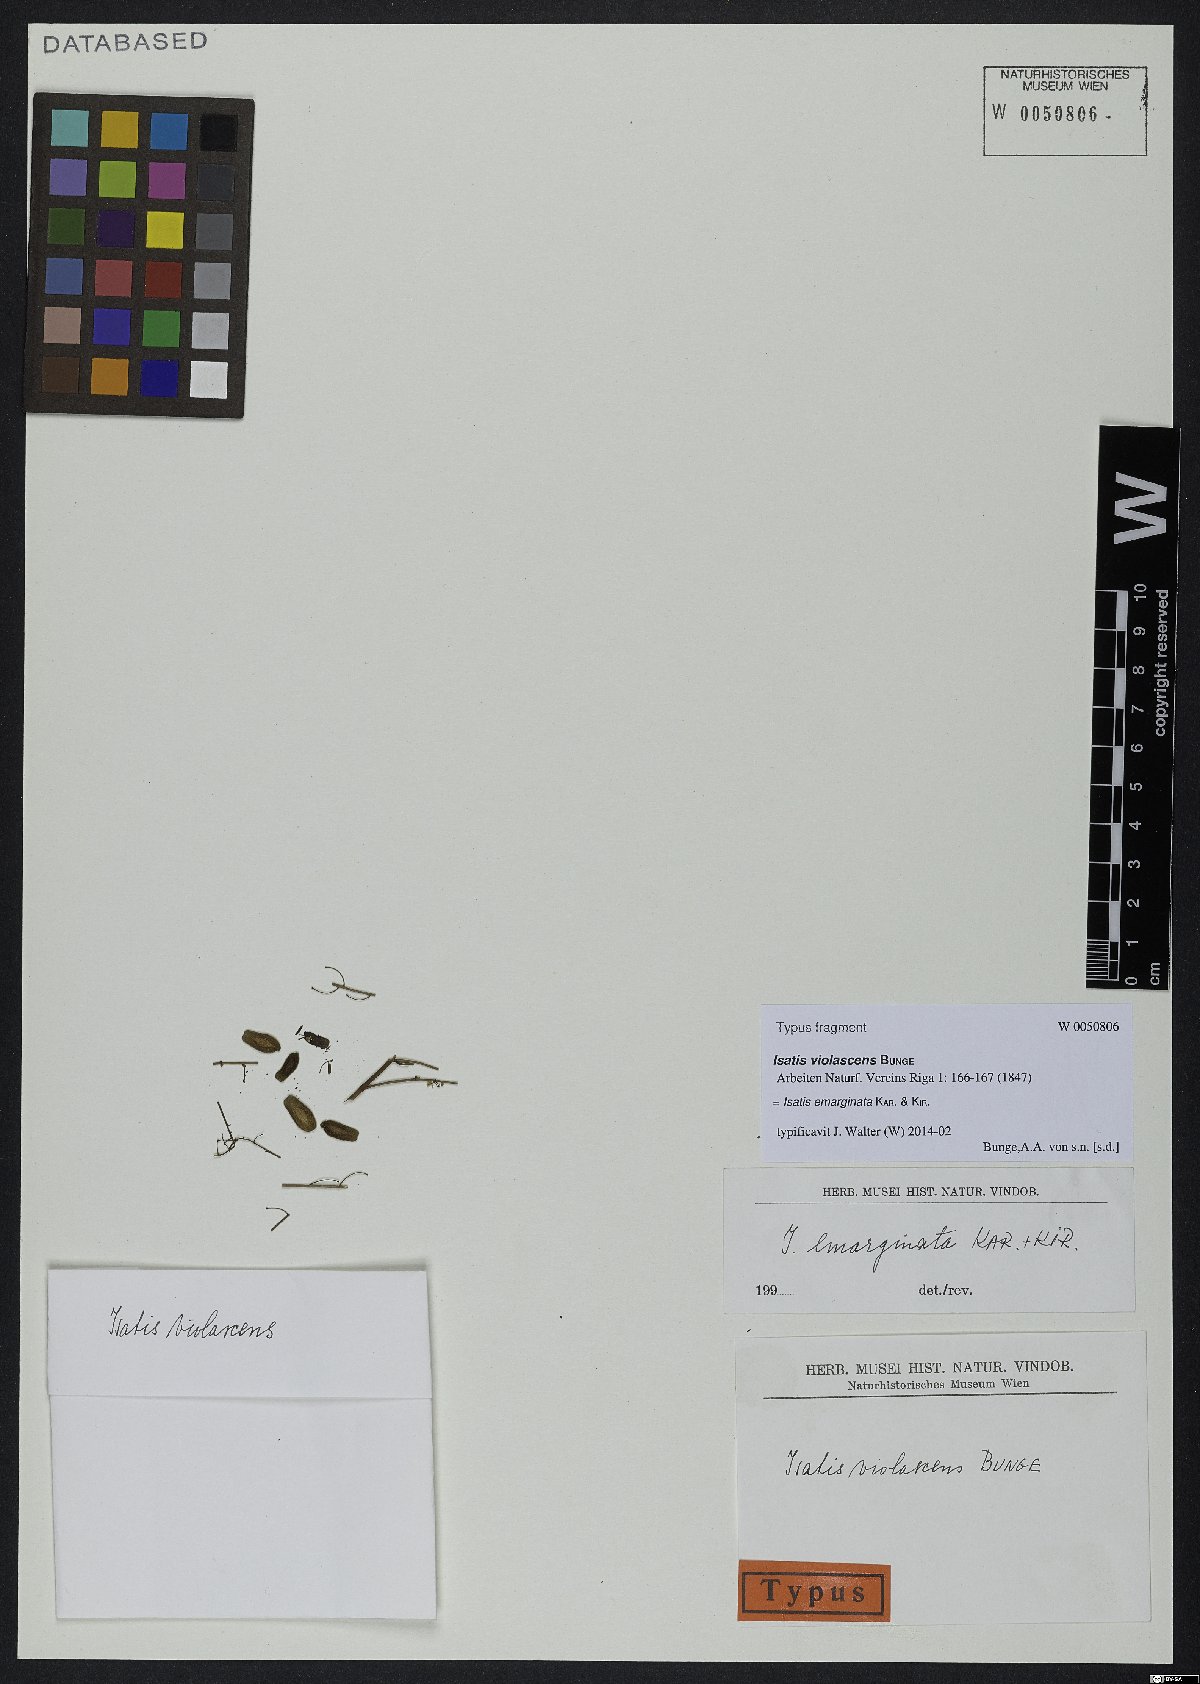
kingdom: Plantae
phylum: Tracheophyta
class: Magnoliopsida
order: Brassicales
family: Brassicaceae
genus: Isatis
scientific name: Isatis emarginata
